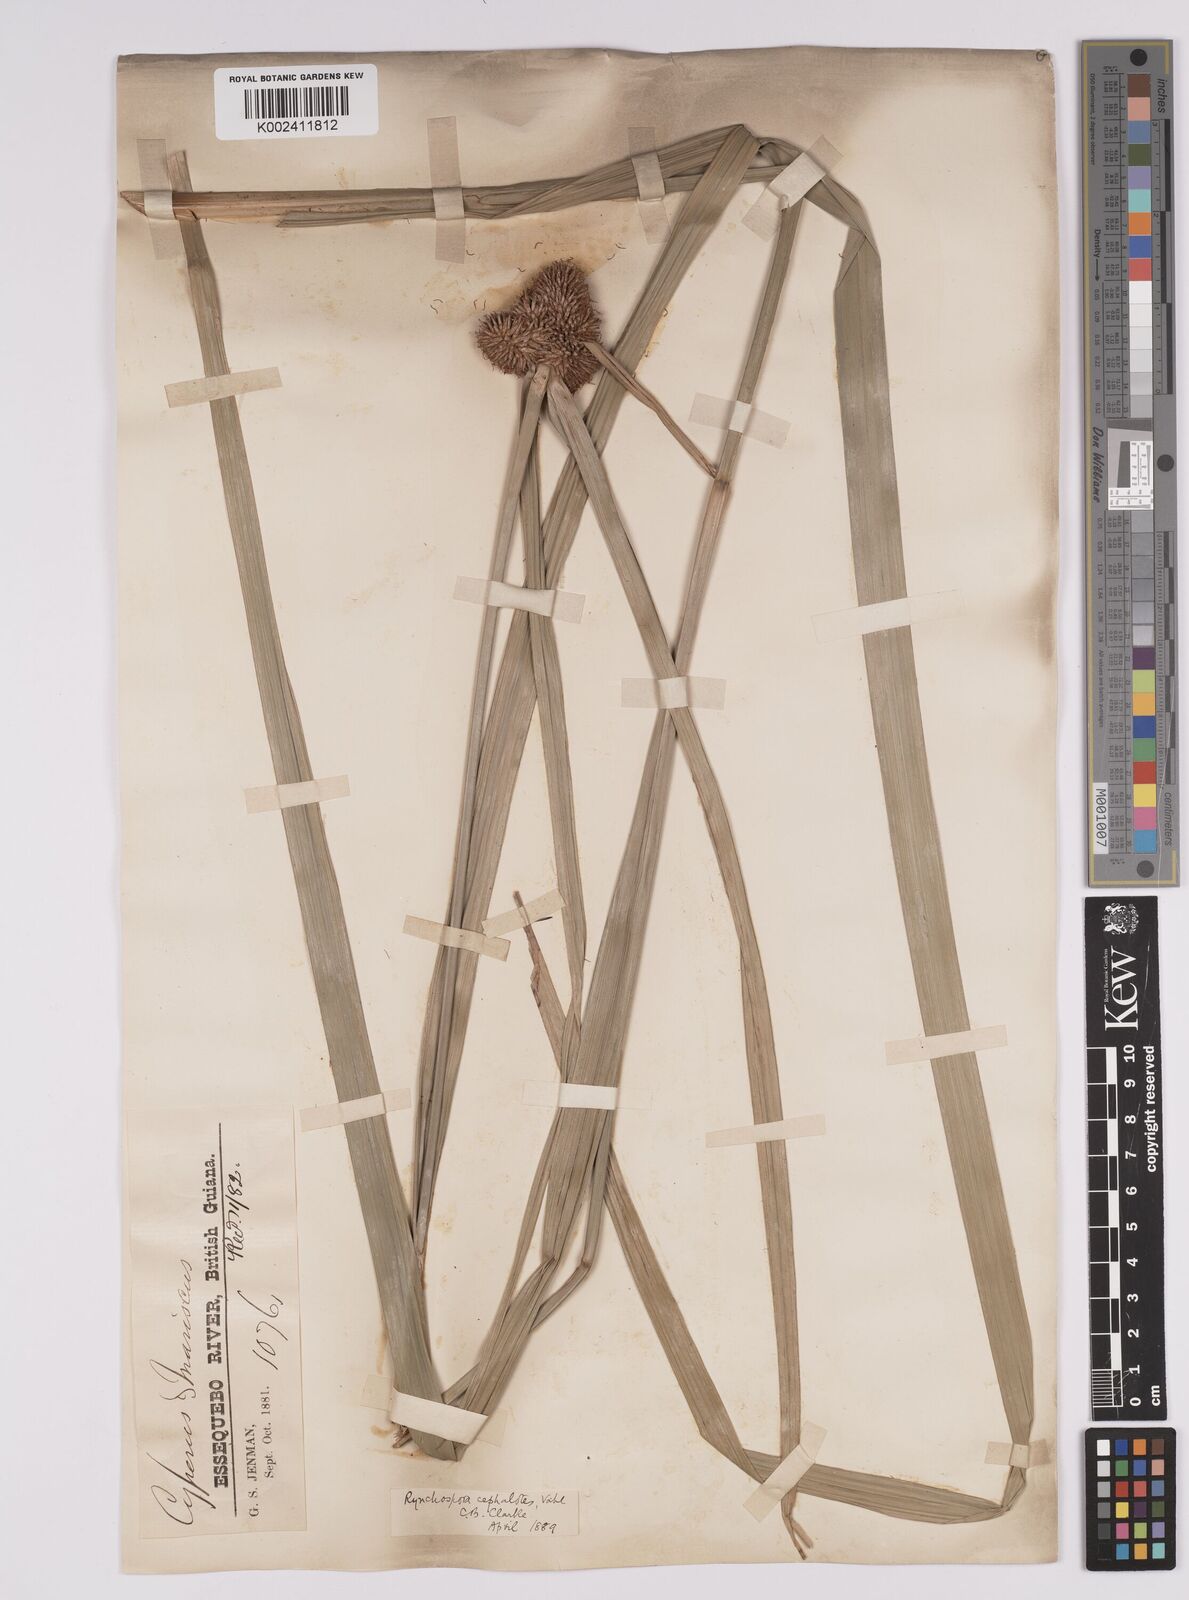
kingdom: Plantae
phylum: Tracheophyta
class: Liliopsida
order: Poales
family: Cyperaceae
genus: Rhynchospora
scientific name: Rhynchospora cephalotes
